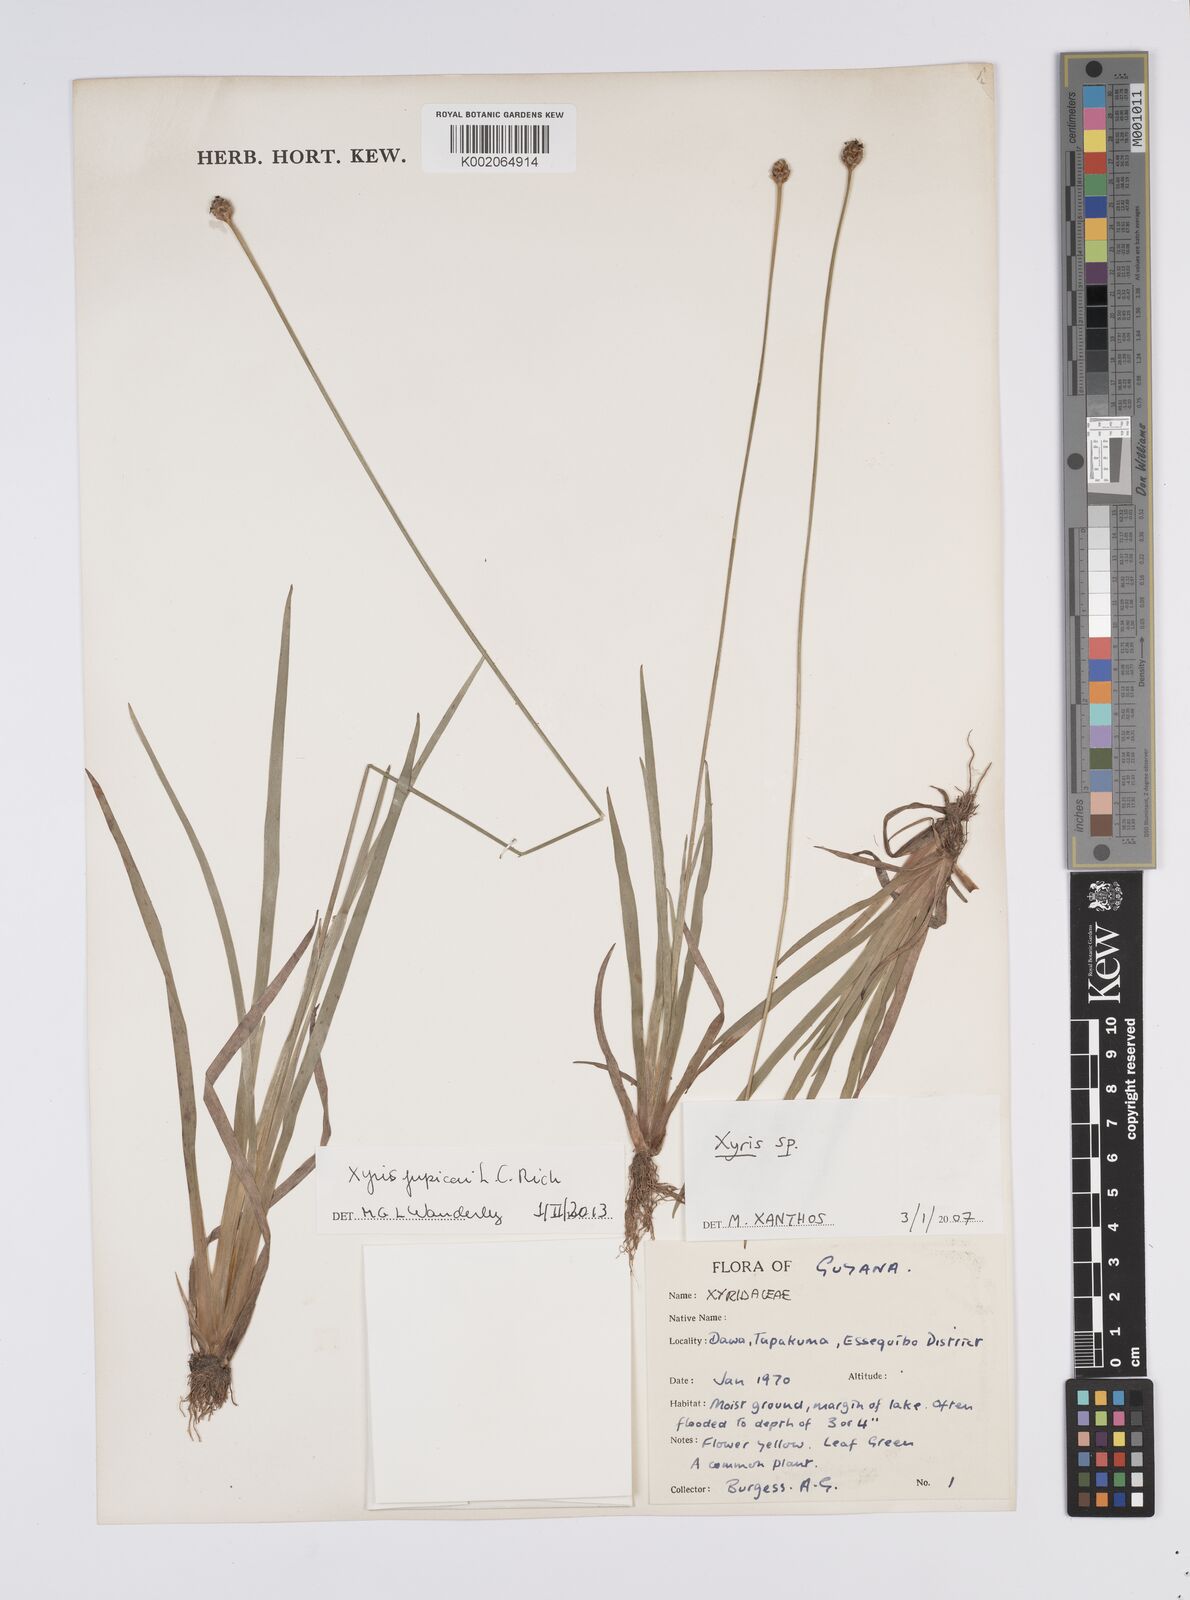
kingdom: Plantae
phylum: Tracheophyta
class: Liliopsida
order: Poales
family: Xyridaceae
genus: Xyris
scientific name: Xyris jupicai
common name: Richard's yelloweyed grass
